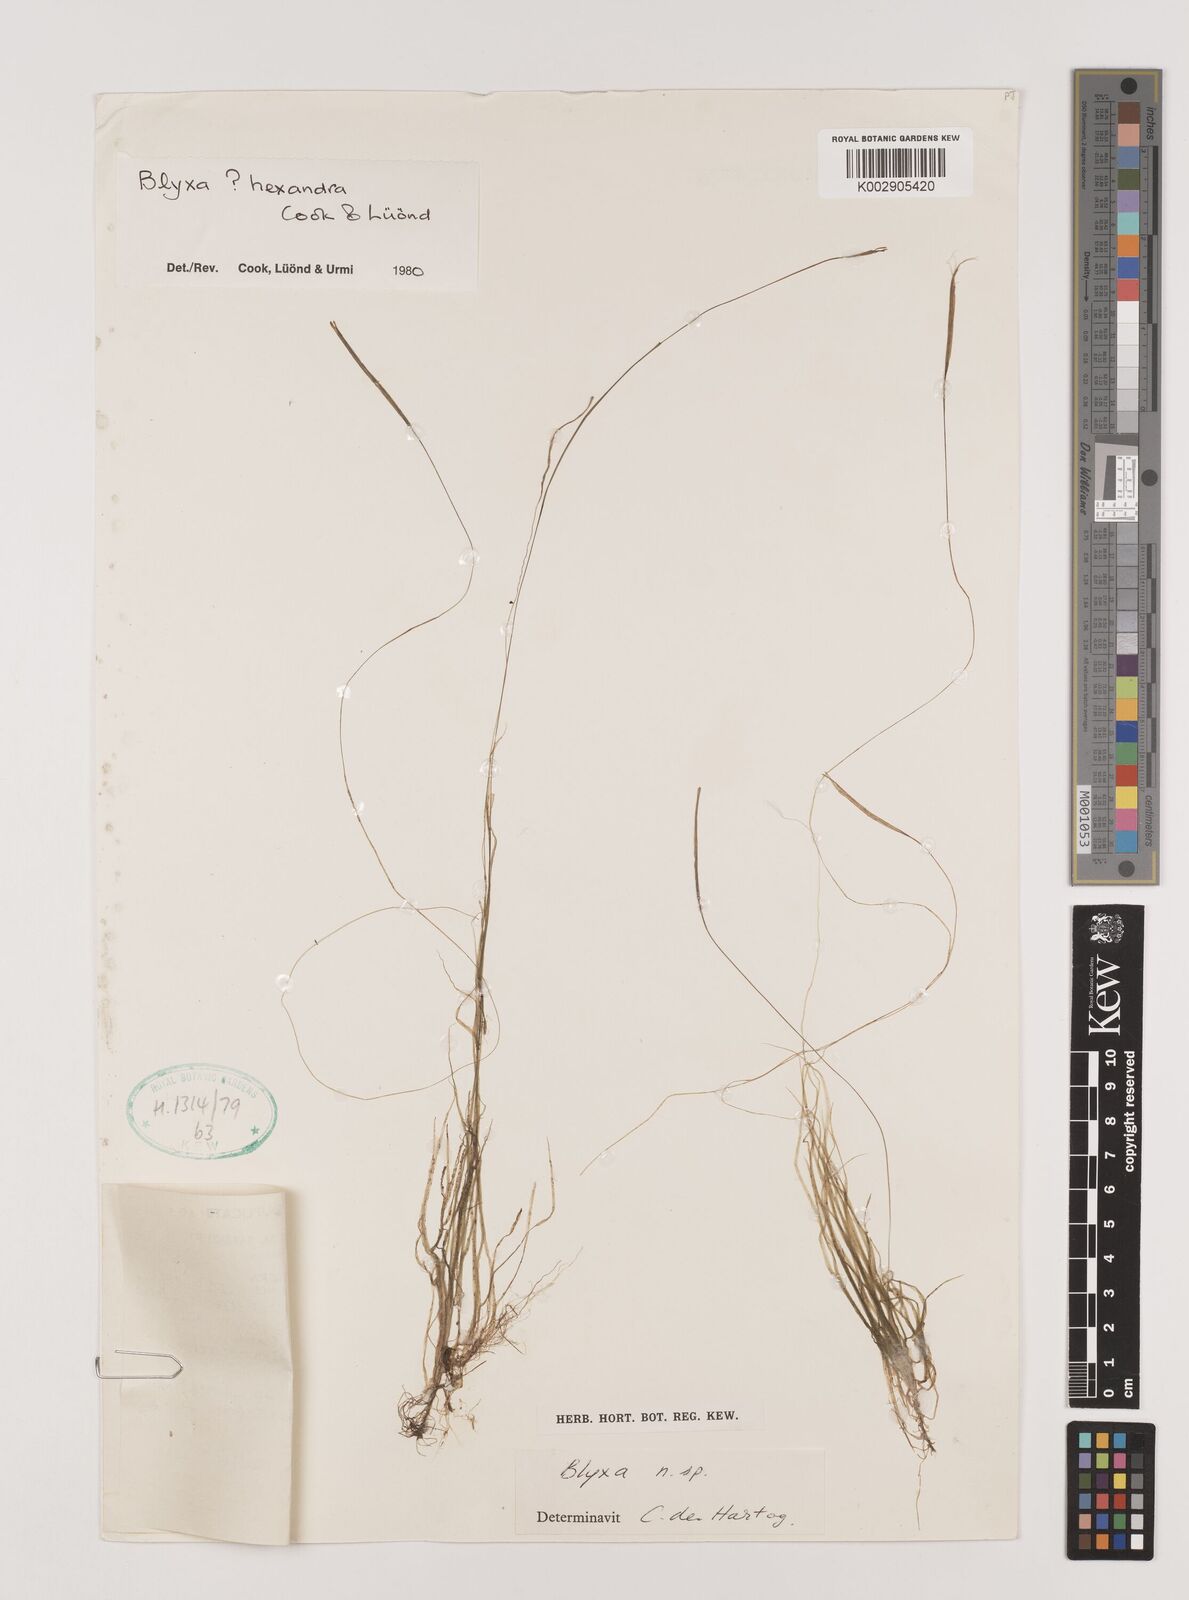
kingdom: Plantae
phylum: Tracheophyta
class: Liliopsida
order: Alismatales
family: Hydrocharitaceae
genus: Blyxa
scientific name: Blyxa hexandra
